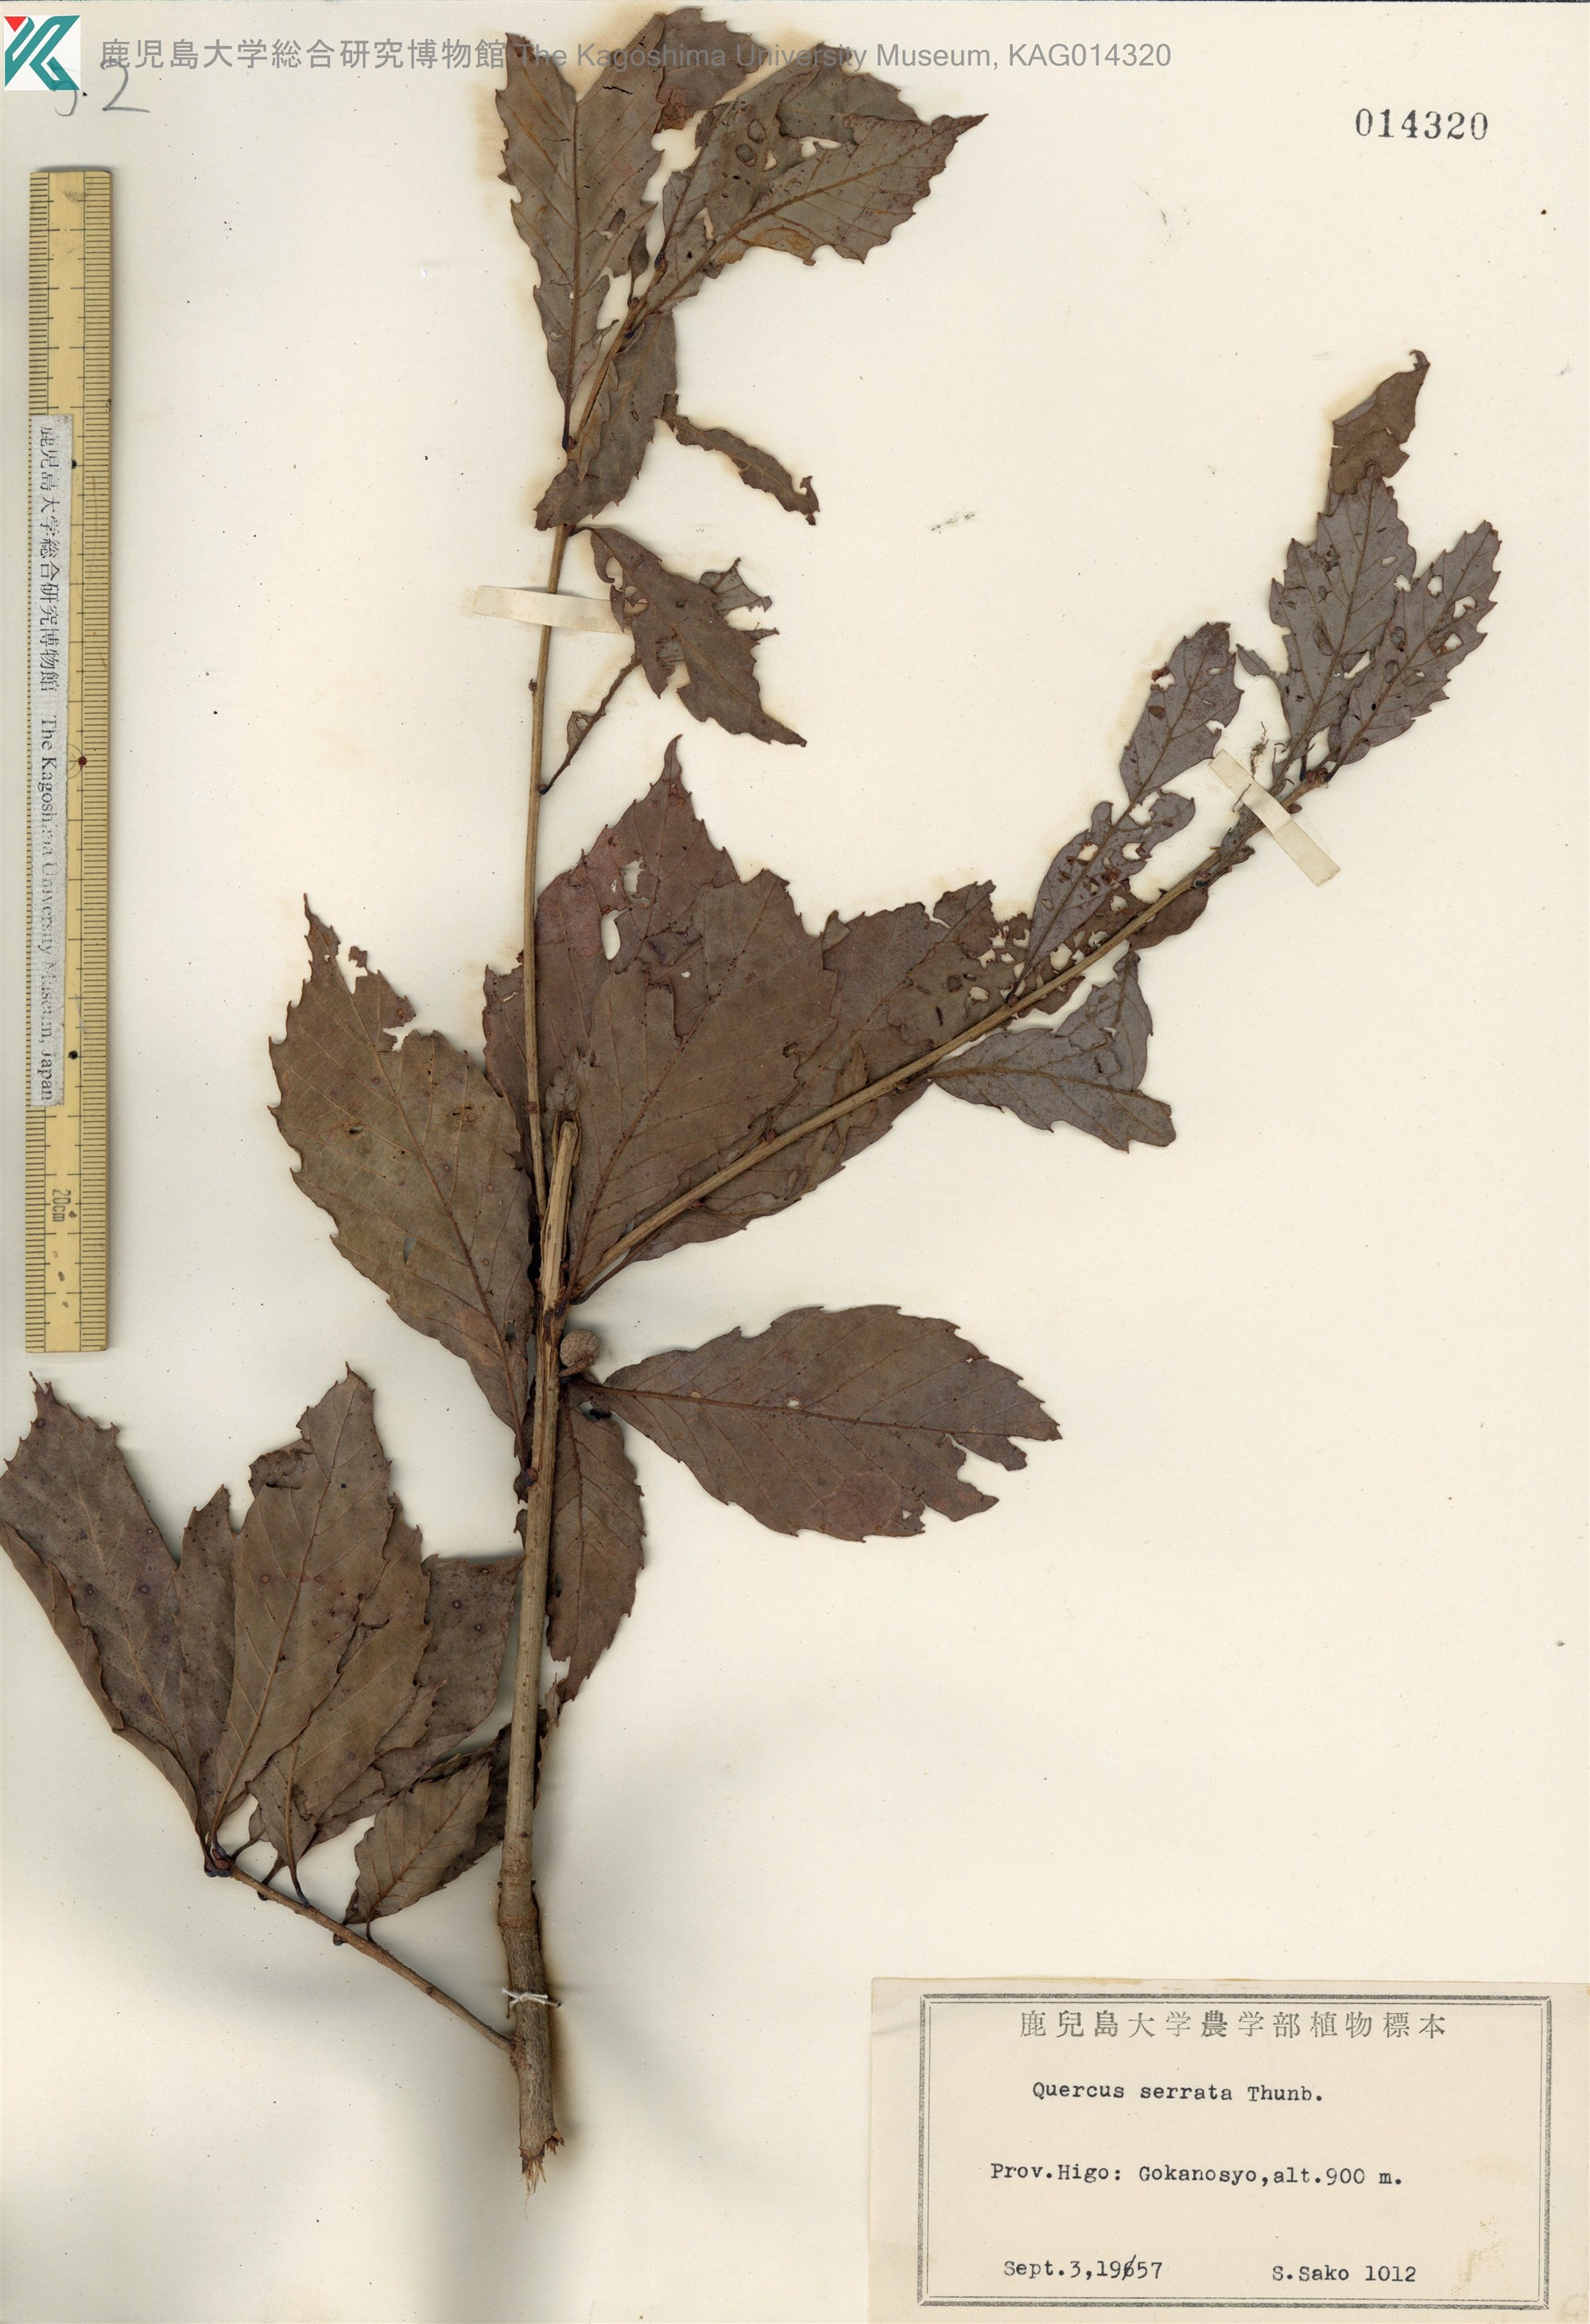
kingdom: Plantae
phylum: Tracheophyta
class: Magnoliopsida
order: Fagales
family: Fagaceae
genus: Quercus
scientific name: Quercus serrata
